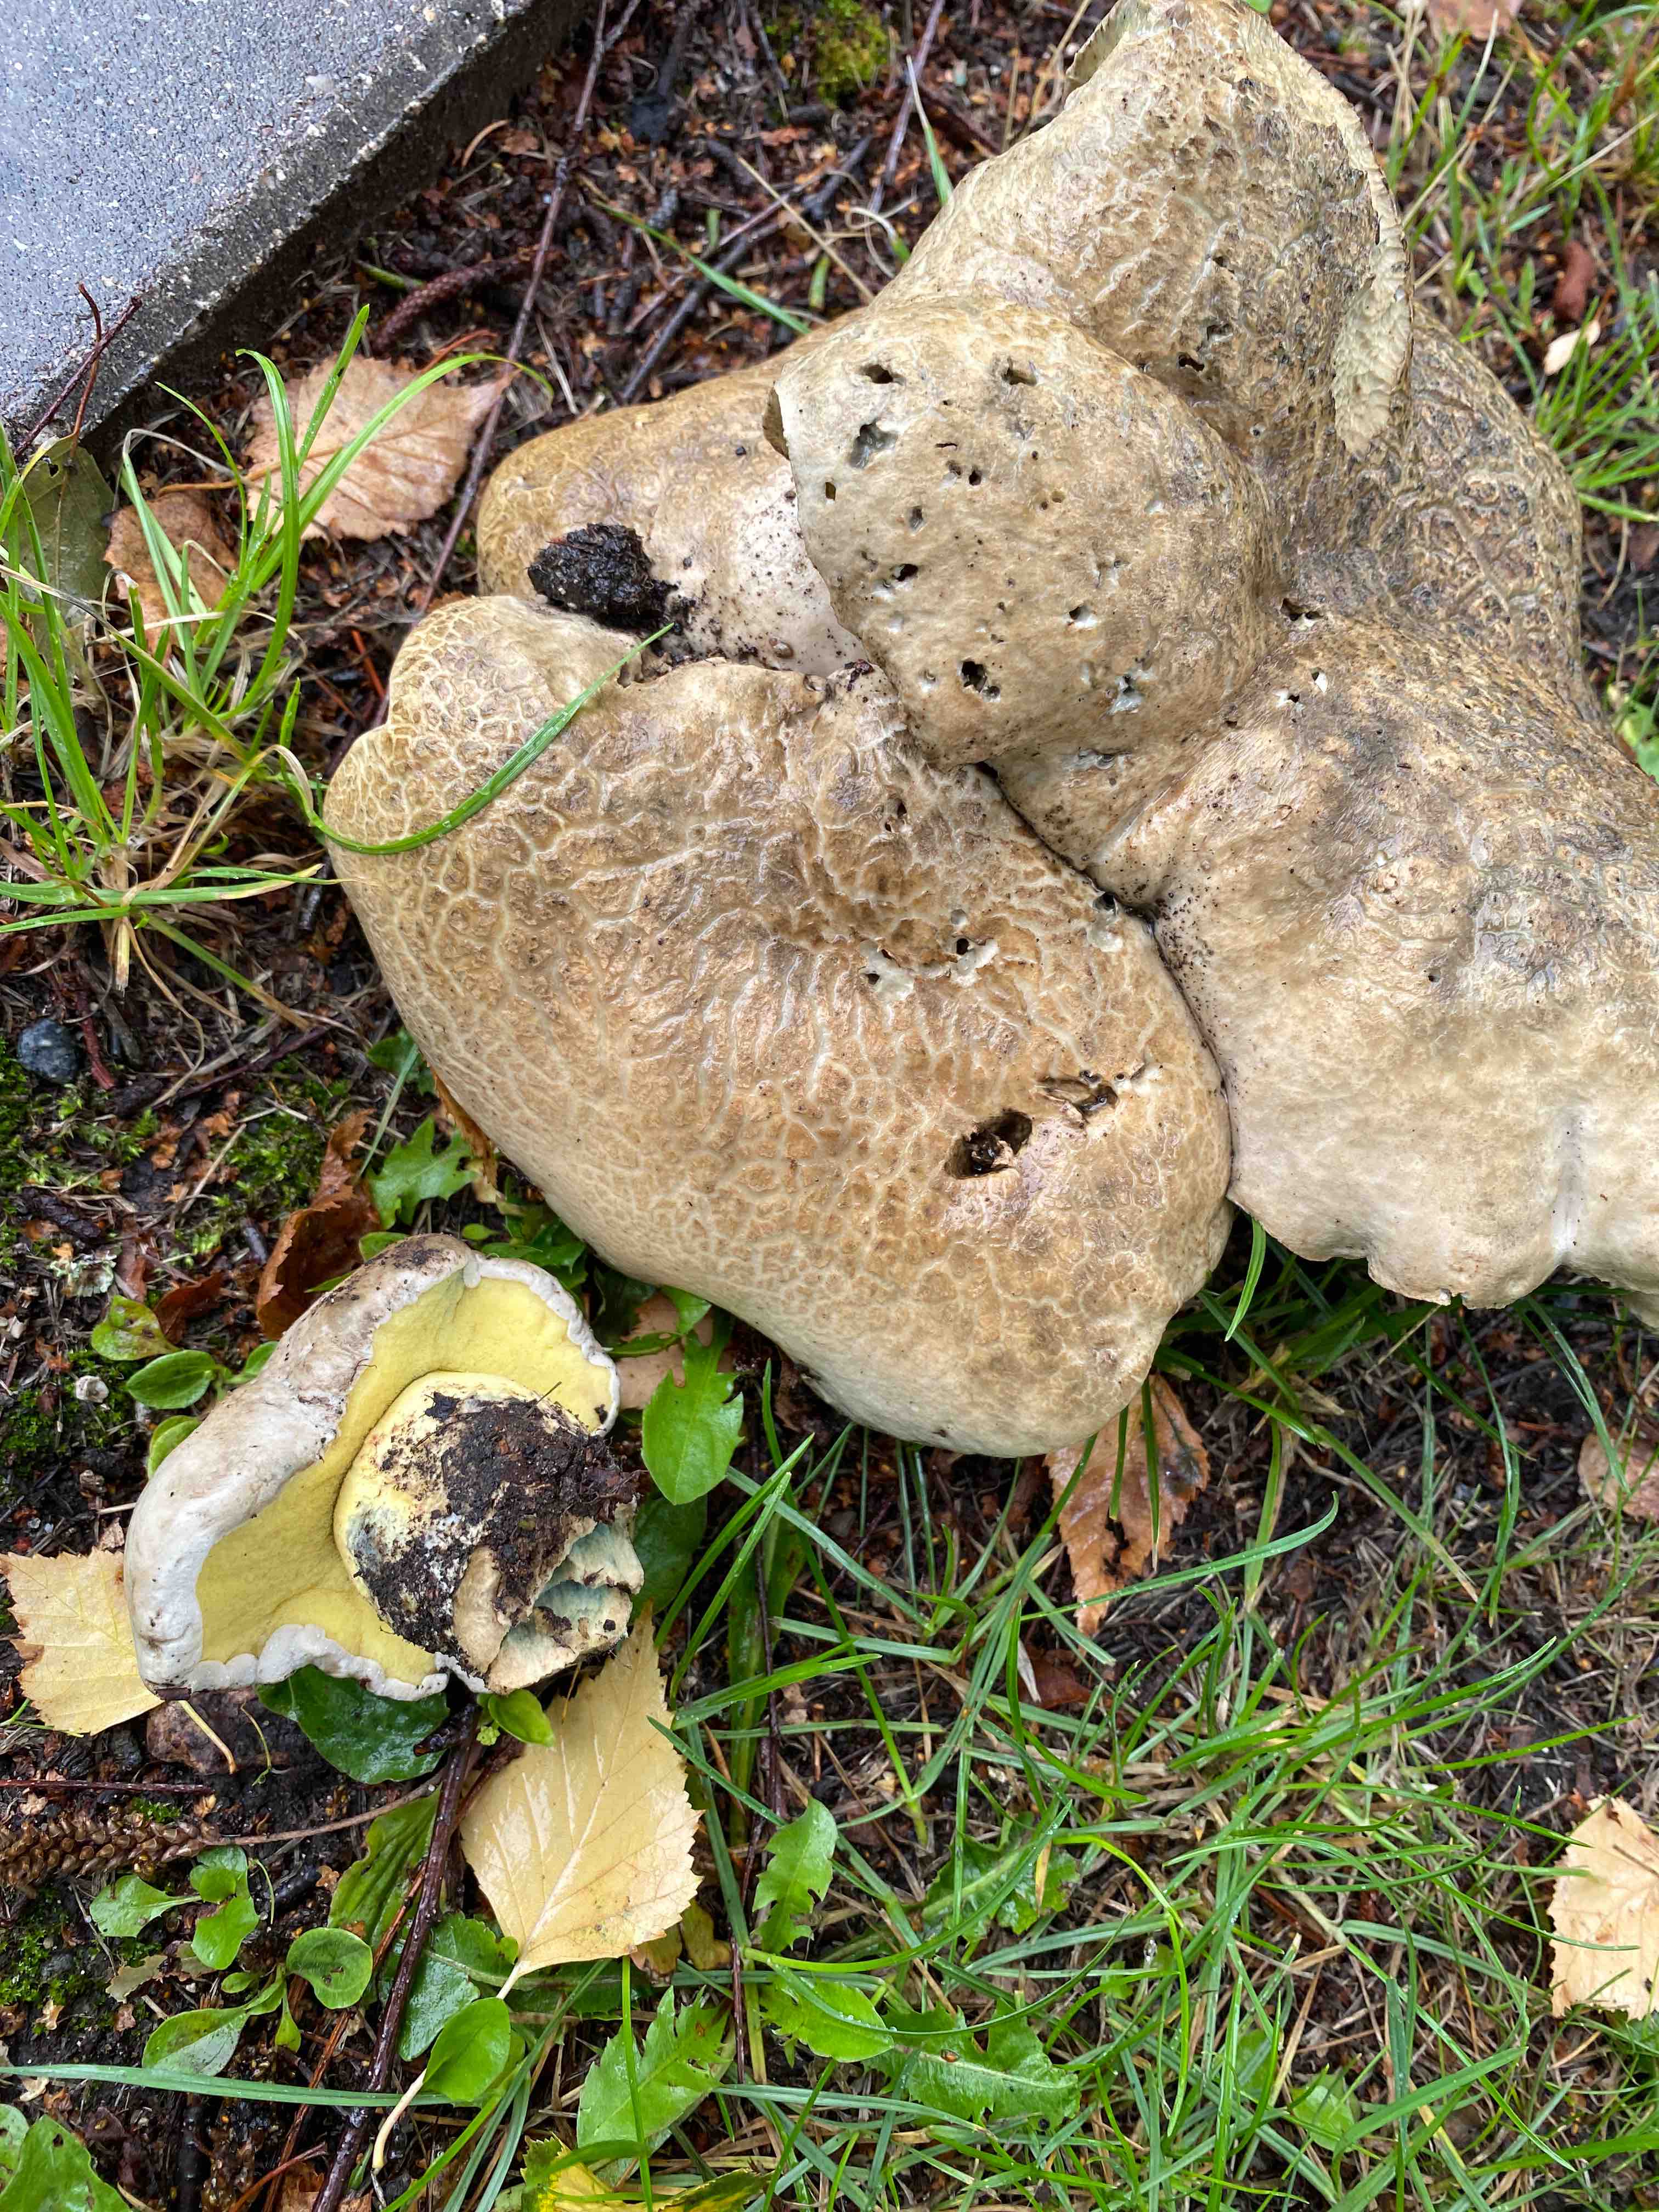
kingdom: Fungi
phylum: Basidiomycota
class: Agaricomycetes
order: Boletales
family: Boletaceae
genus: Caloboletus
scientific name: Caloboletus radicans
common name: rod-rørhat
